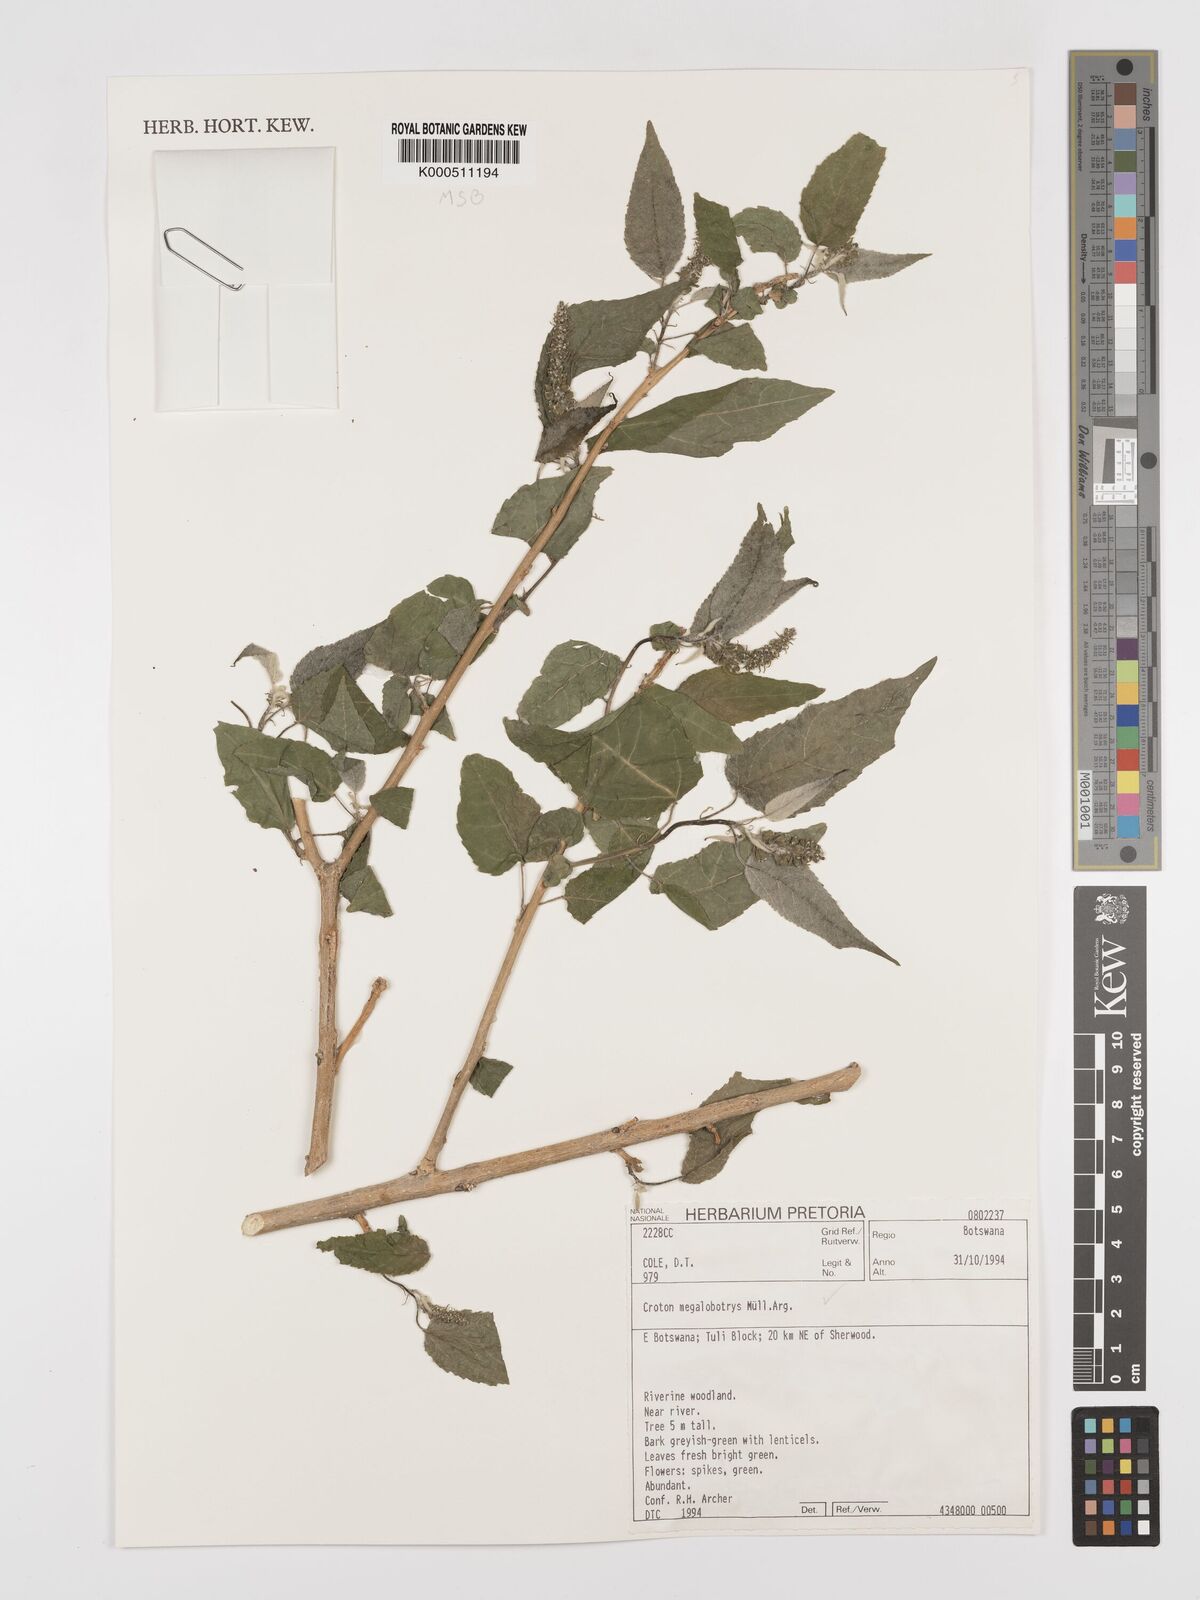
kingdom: Plantae
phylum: Tracheophyta
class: Magnoliopsida
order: Malpighiales
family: Euphorbiaceae
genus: Croton
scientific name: Croton
